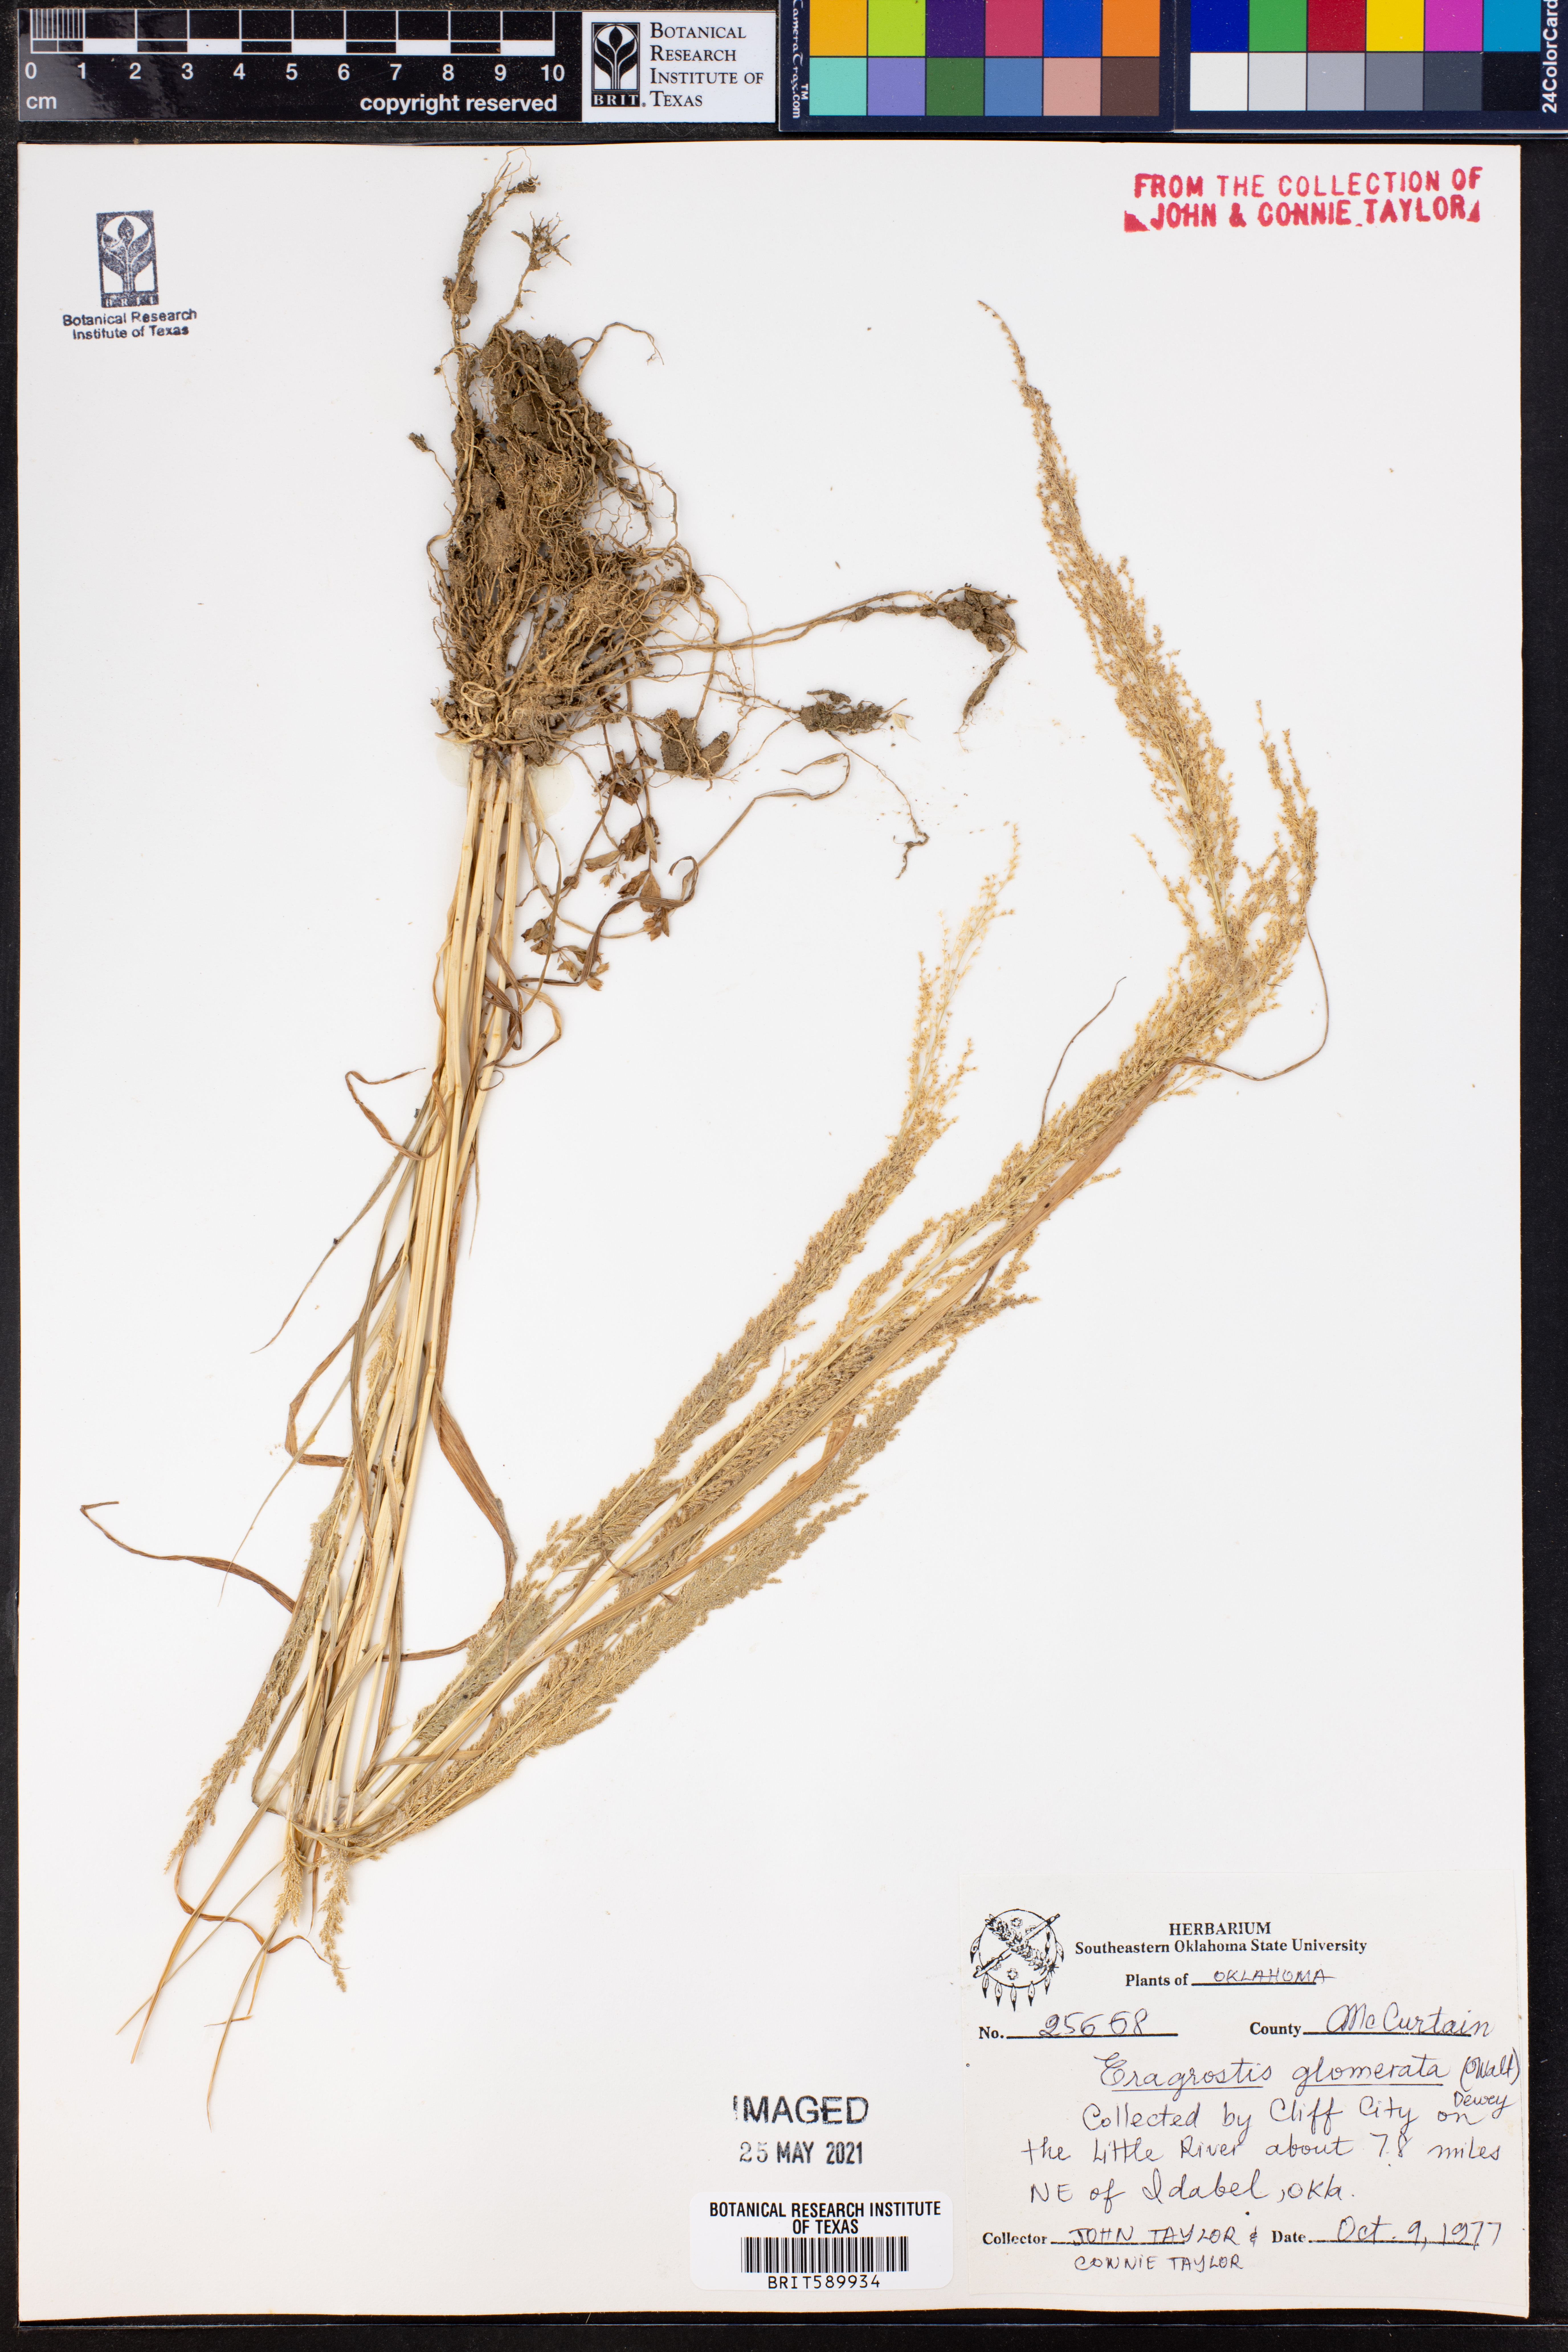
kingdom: Plantae
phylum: Tracheophyta
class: Liliopsida
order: Poales
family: Poaceae
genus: Eragrostis
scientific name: Eragrostis japonica
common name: Pond lovegrass
